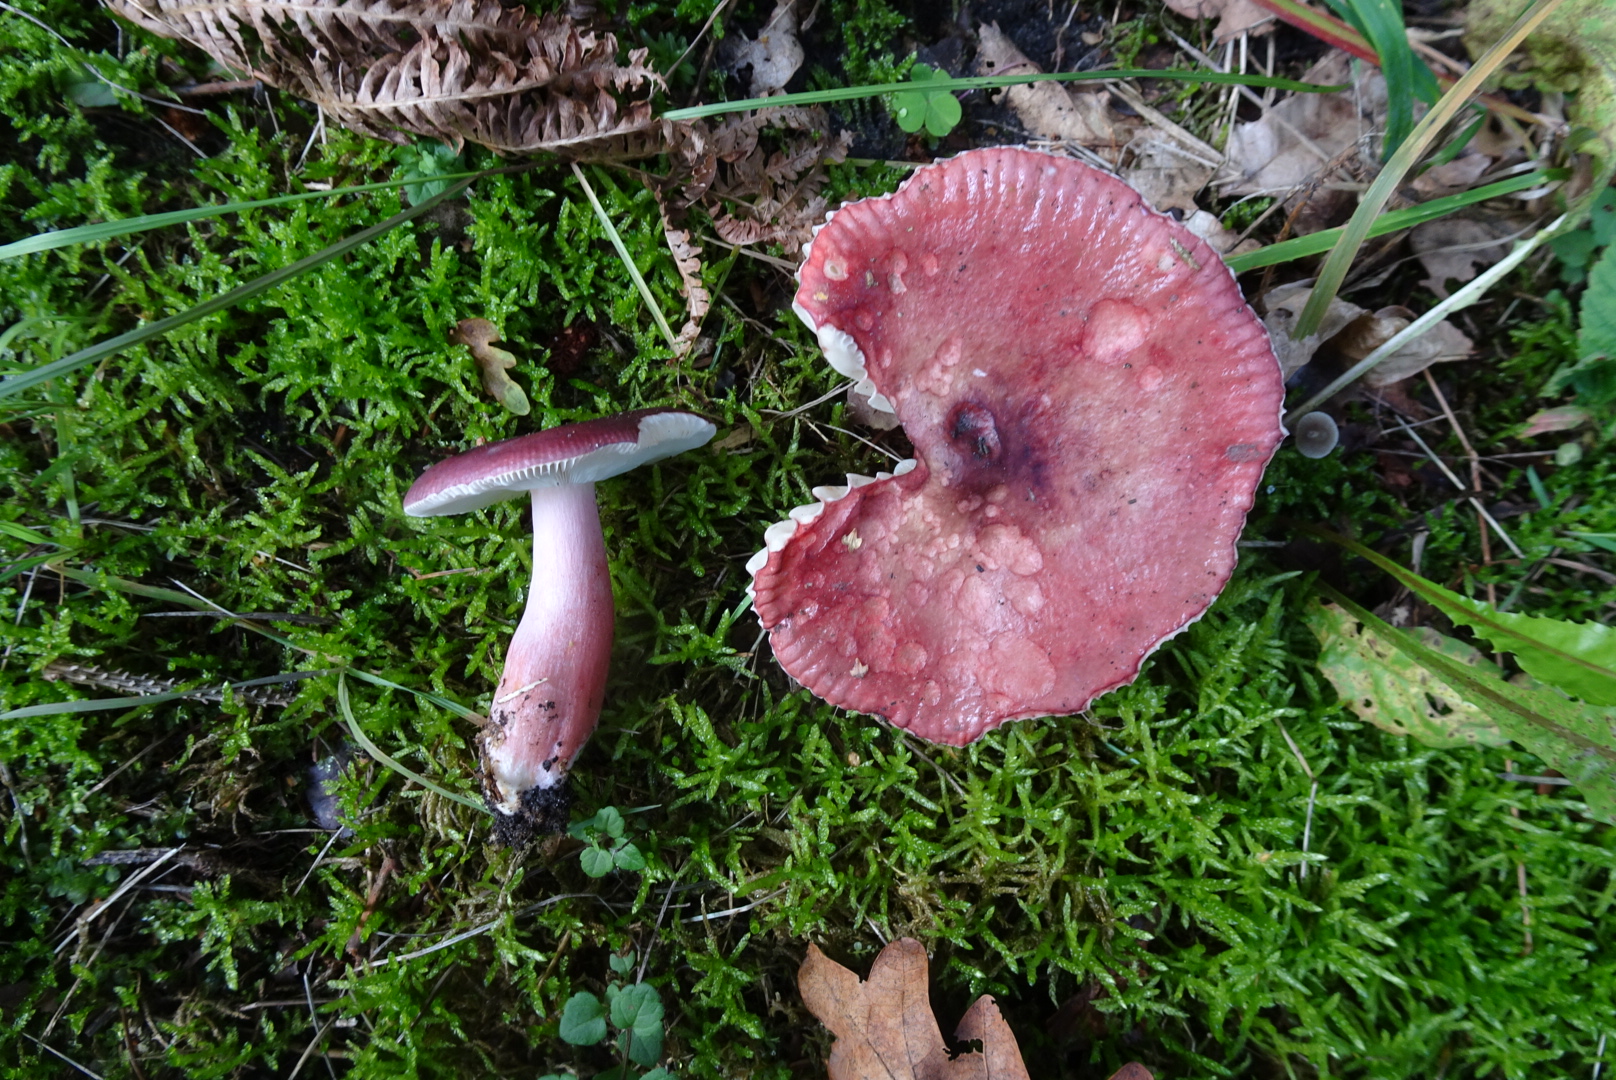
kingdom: Fungi
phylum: Basidiomycota
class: Agaricomycetes
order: Russulales
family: Russulaceae
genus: Russula
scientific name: Russula queletii
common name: Quélets skørhat
